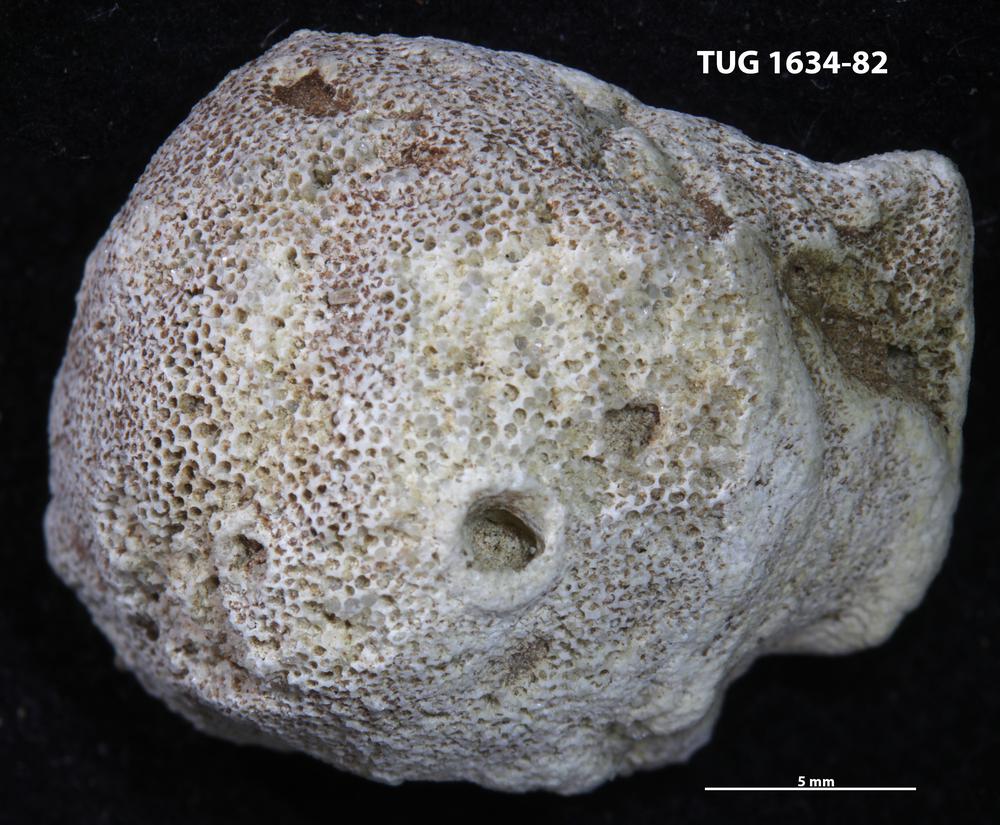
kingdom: Animalia
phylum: Annelida
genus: Anoigmaichnus
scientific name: Anoigmaichnus
